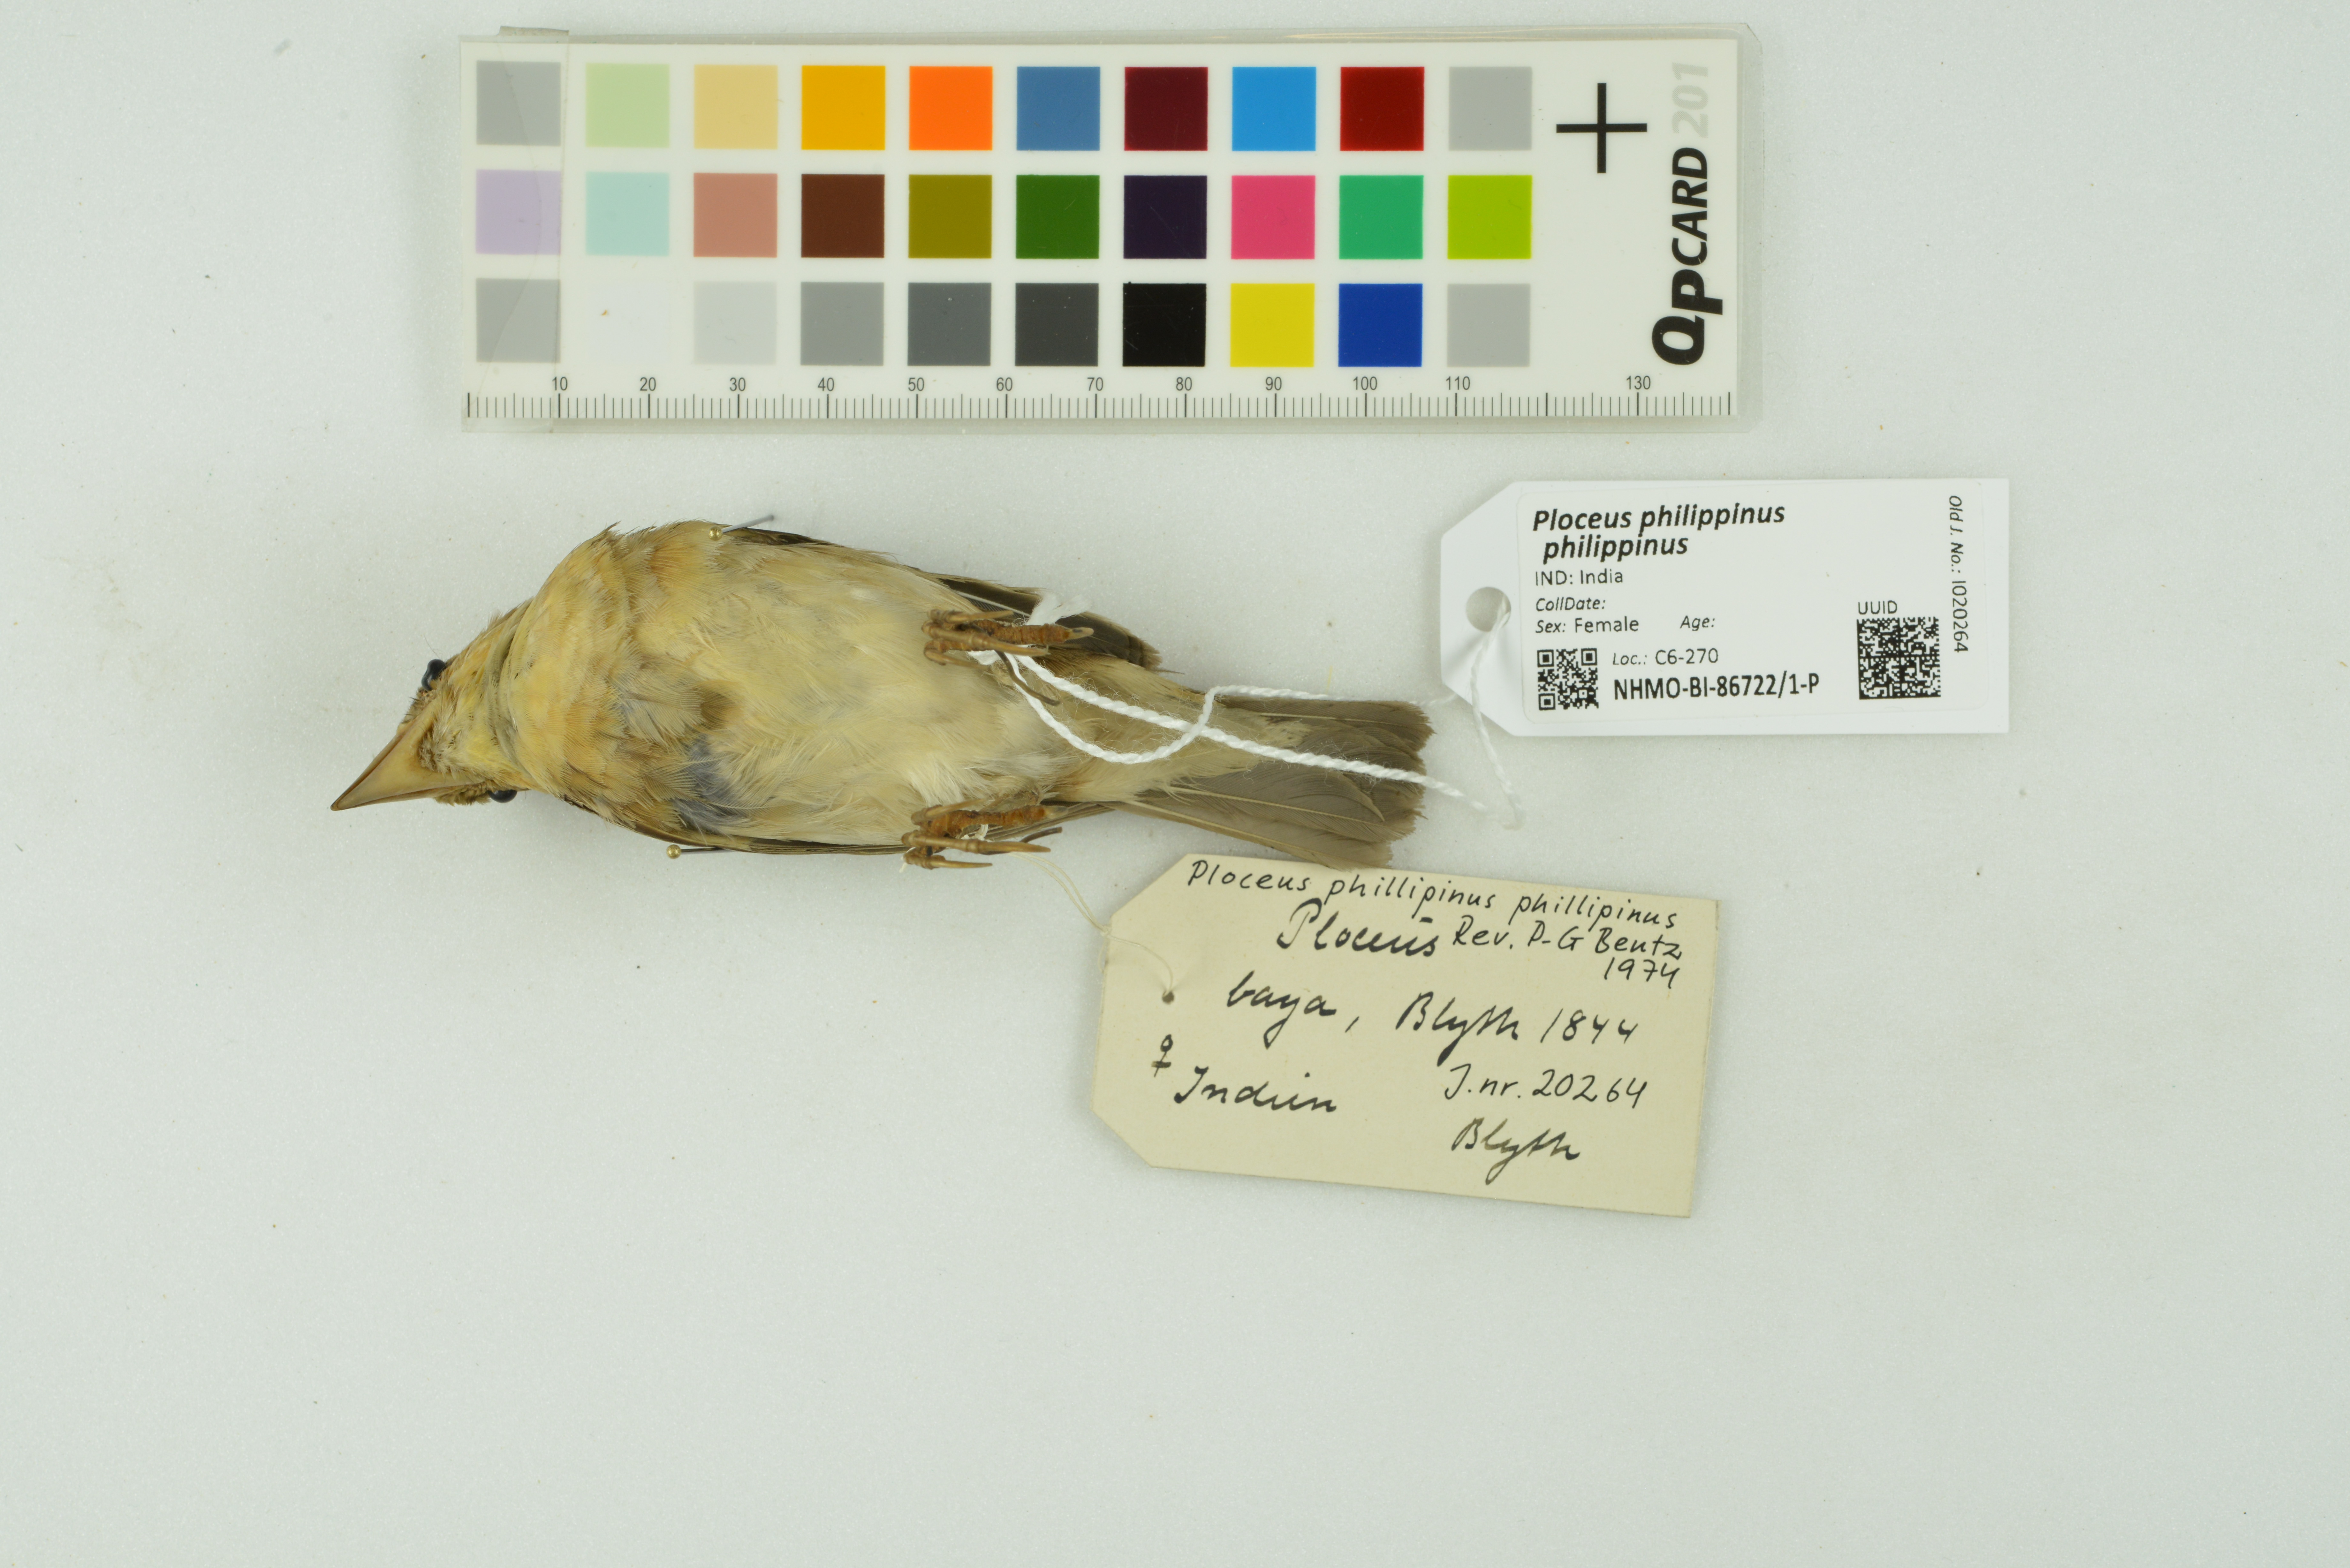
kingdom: Animalia
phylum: Chordata
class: Aves
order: Passeriformes
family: Ploceidae
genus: Ploceus
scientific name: Ploceus philippinus
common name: Baya weaver
